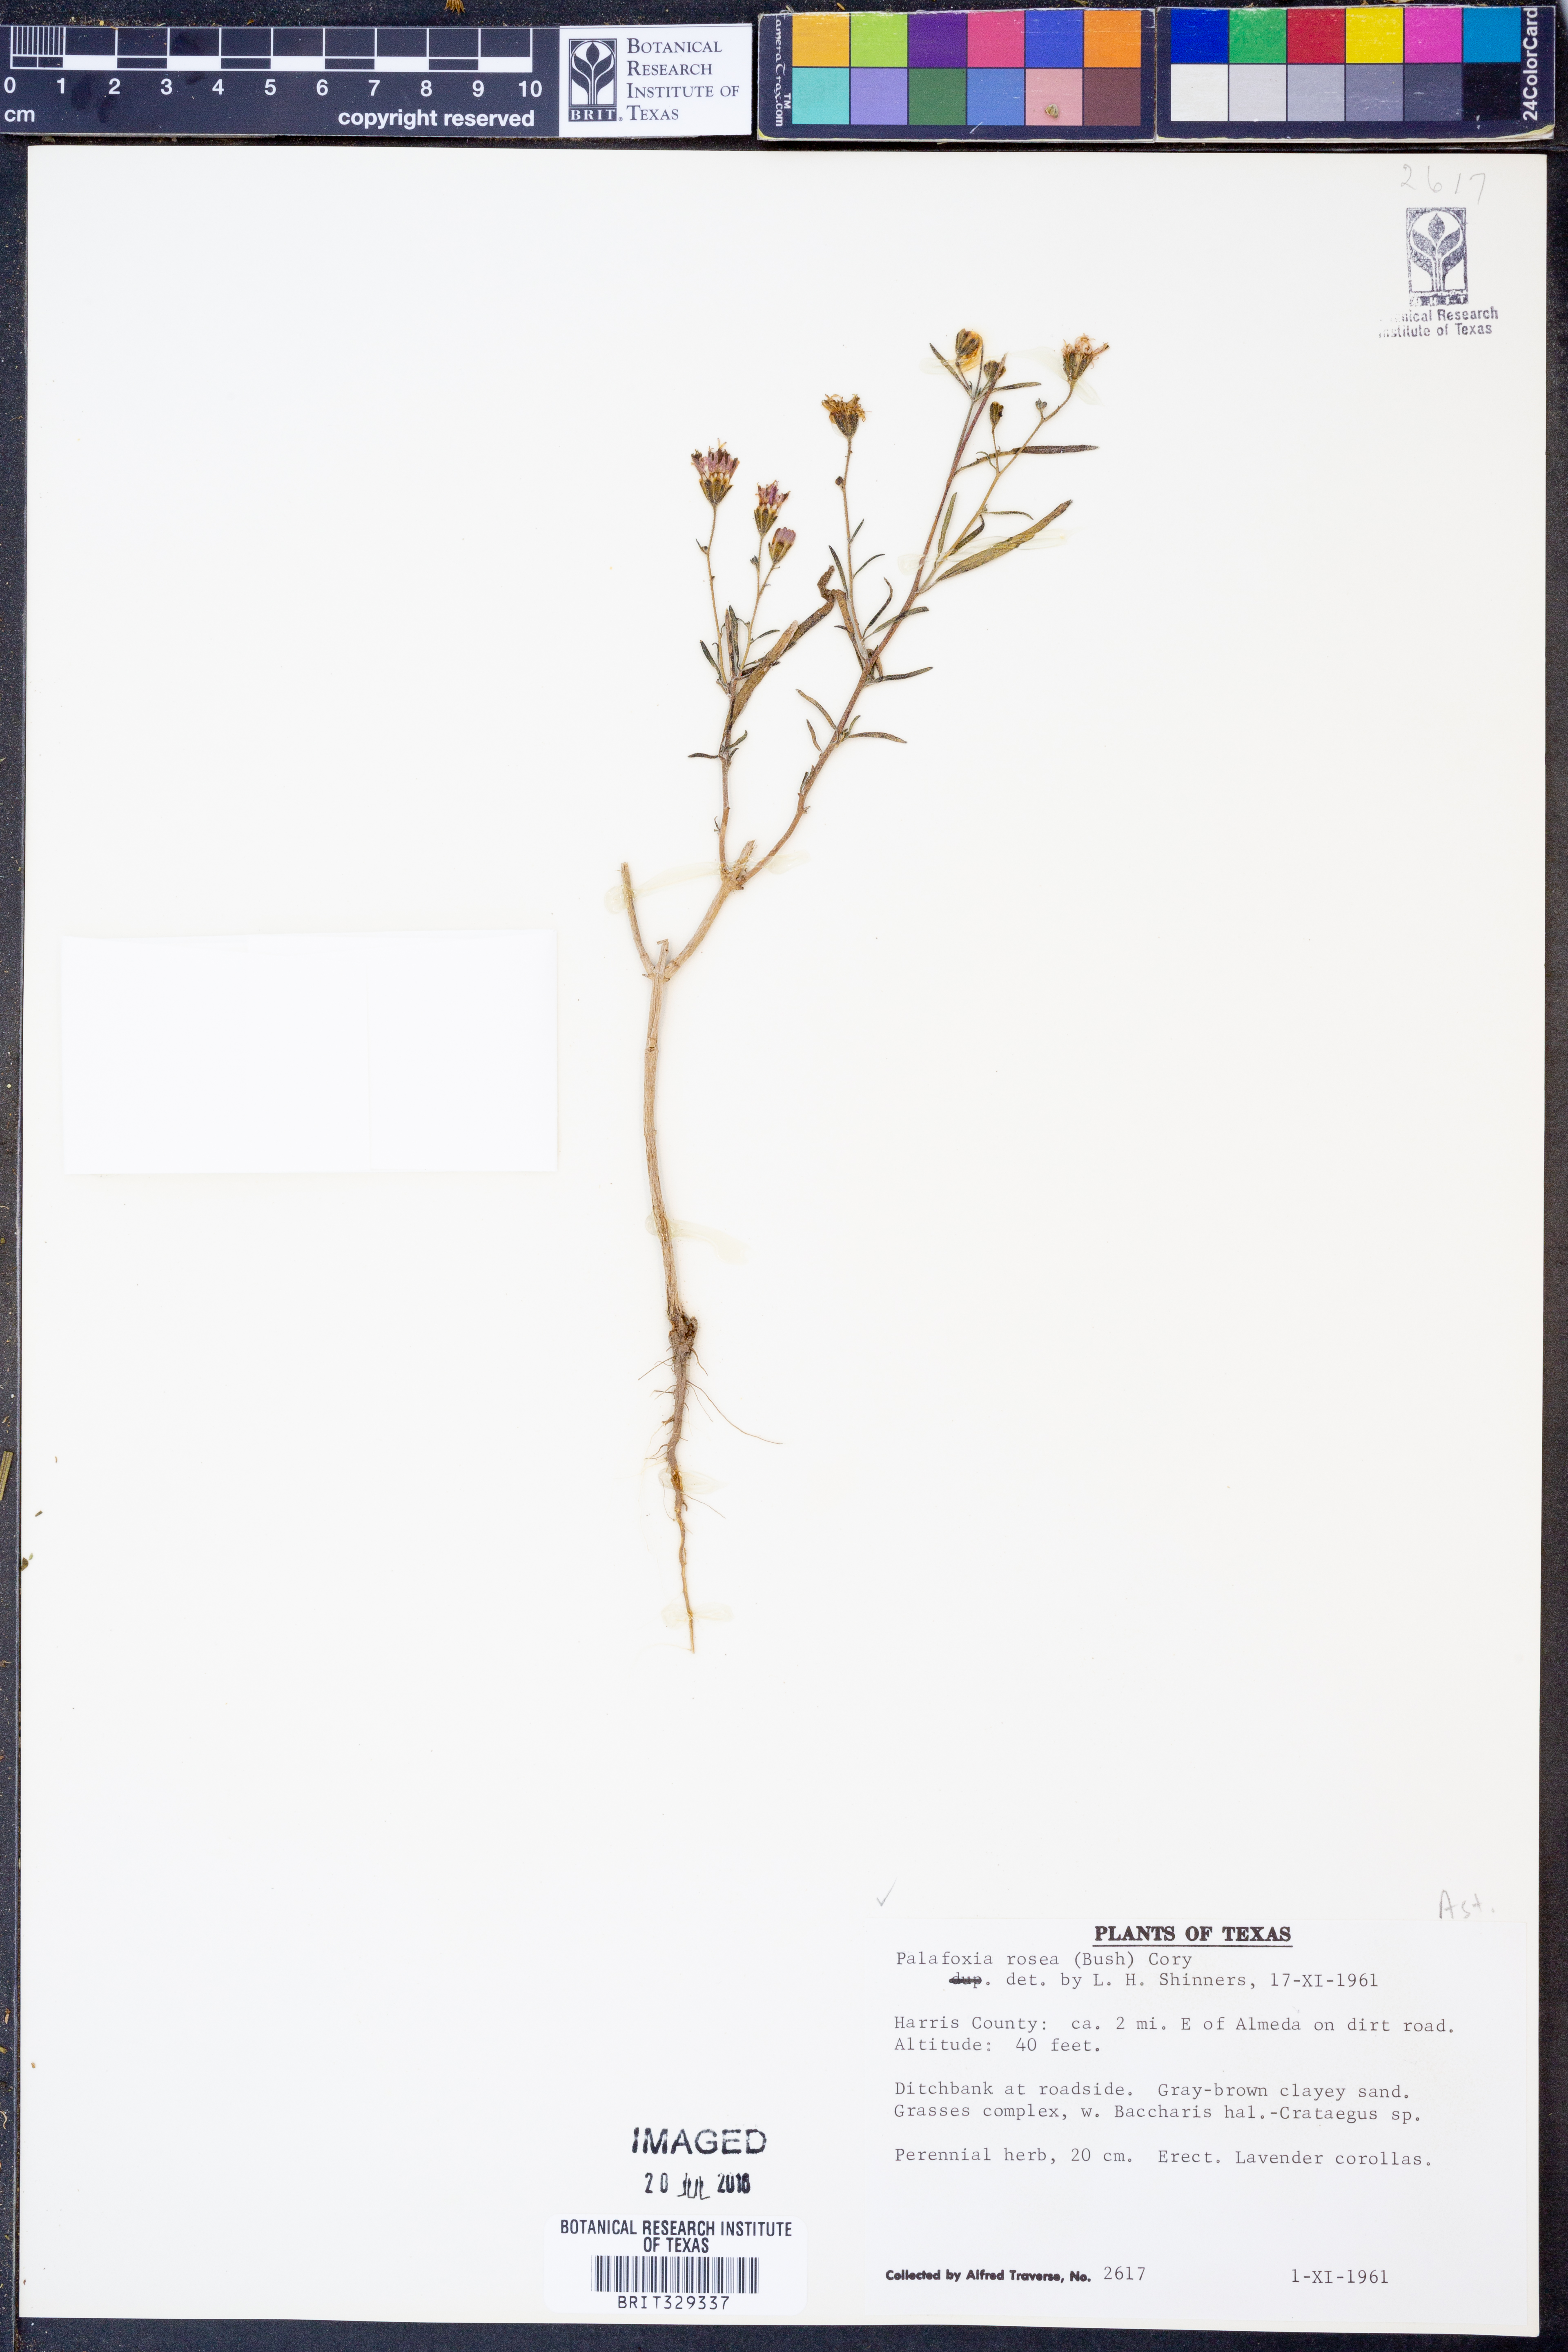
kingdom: Plantae
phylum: Tracheophyta
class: Magnoliopsida
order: Asterales
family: Asteraceae
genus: Palafoxia
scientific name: Palafoxia rosea
